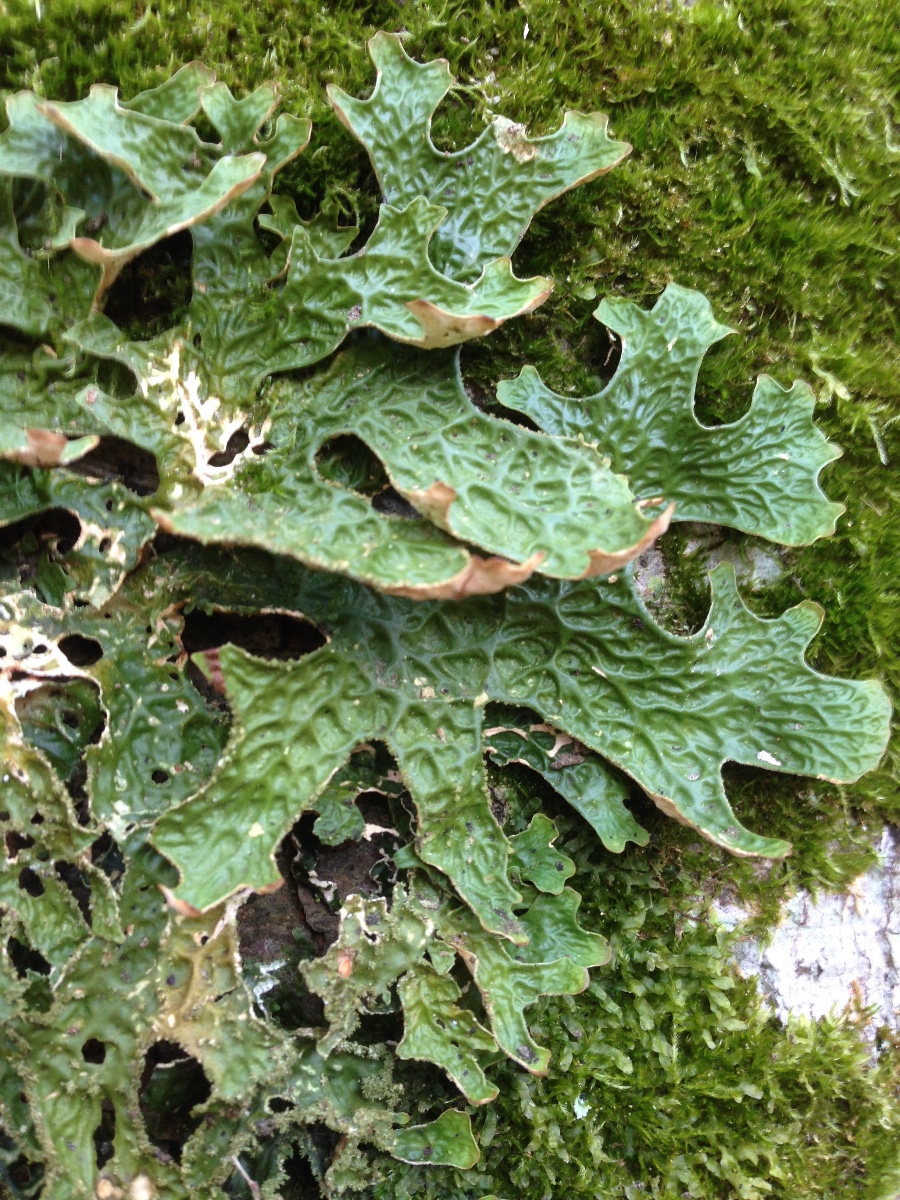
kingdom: Fungi
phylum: Ascomycota
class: Lecanoromycetes
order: Peltigerales
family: Lobariaceae
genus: Lobaria
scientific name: Lobaria pulmonaria
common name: almindelig lungelav
